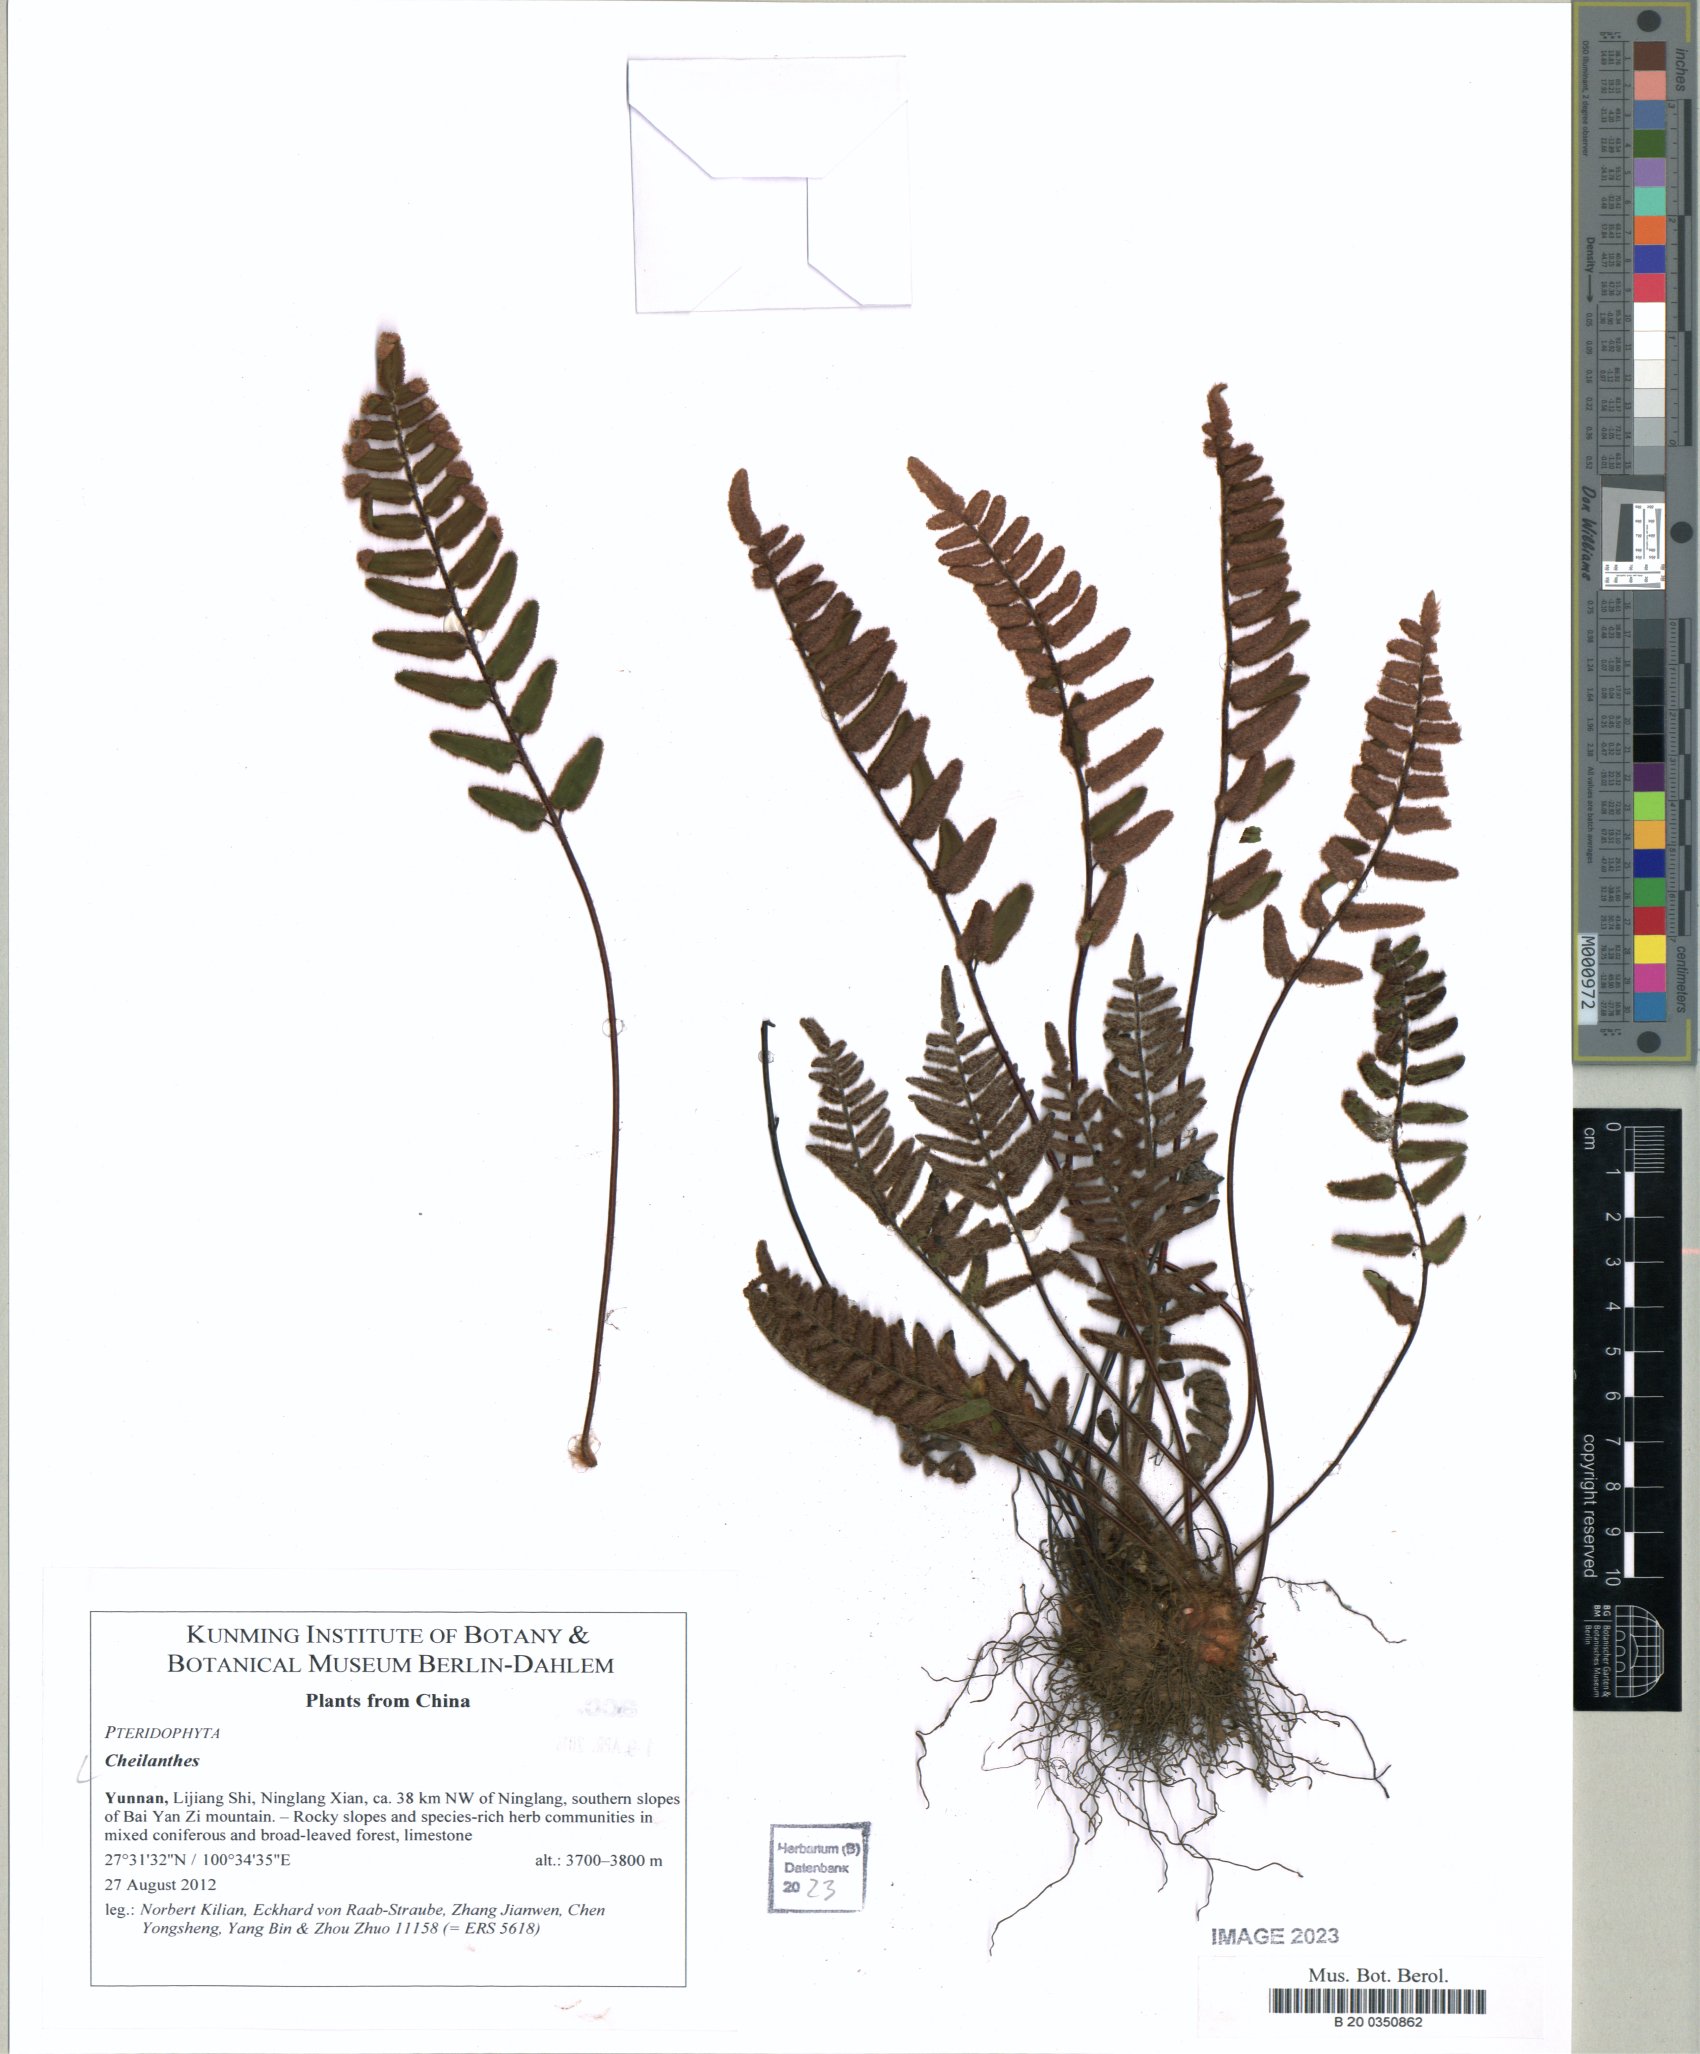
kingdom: Plantae
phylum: Tracheophyta
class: Polypodiopsida
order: Polypodiales
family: Pteridaceae
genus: Cheilanthes
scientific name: Cheilanthes
